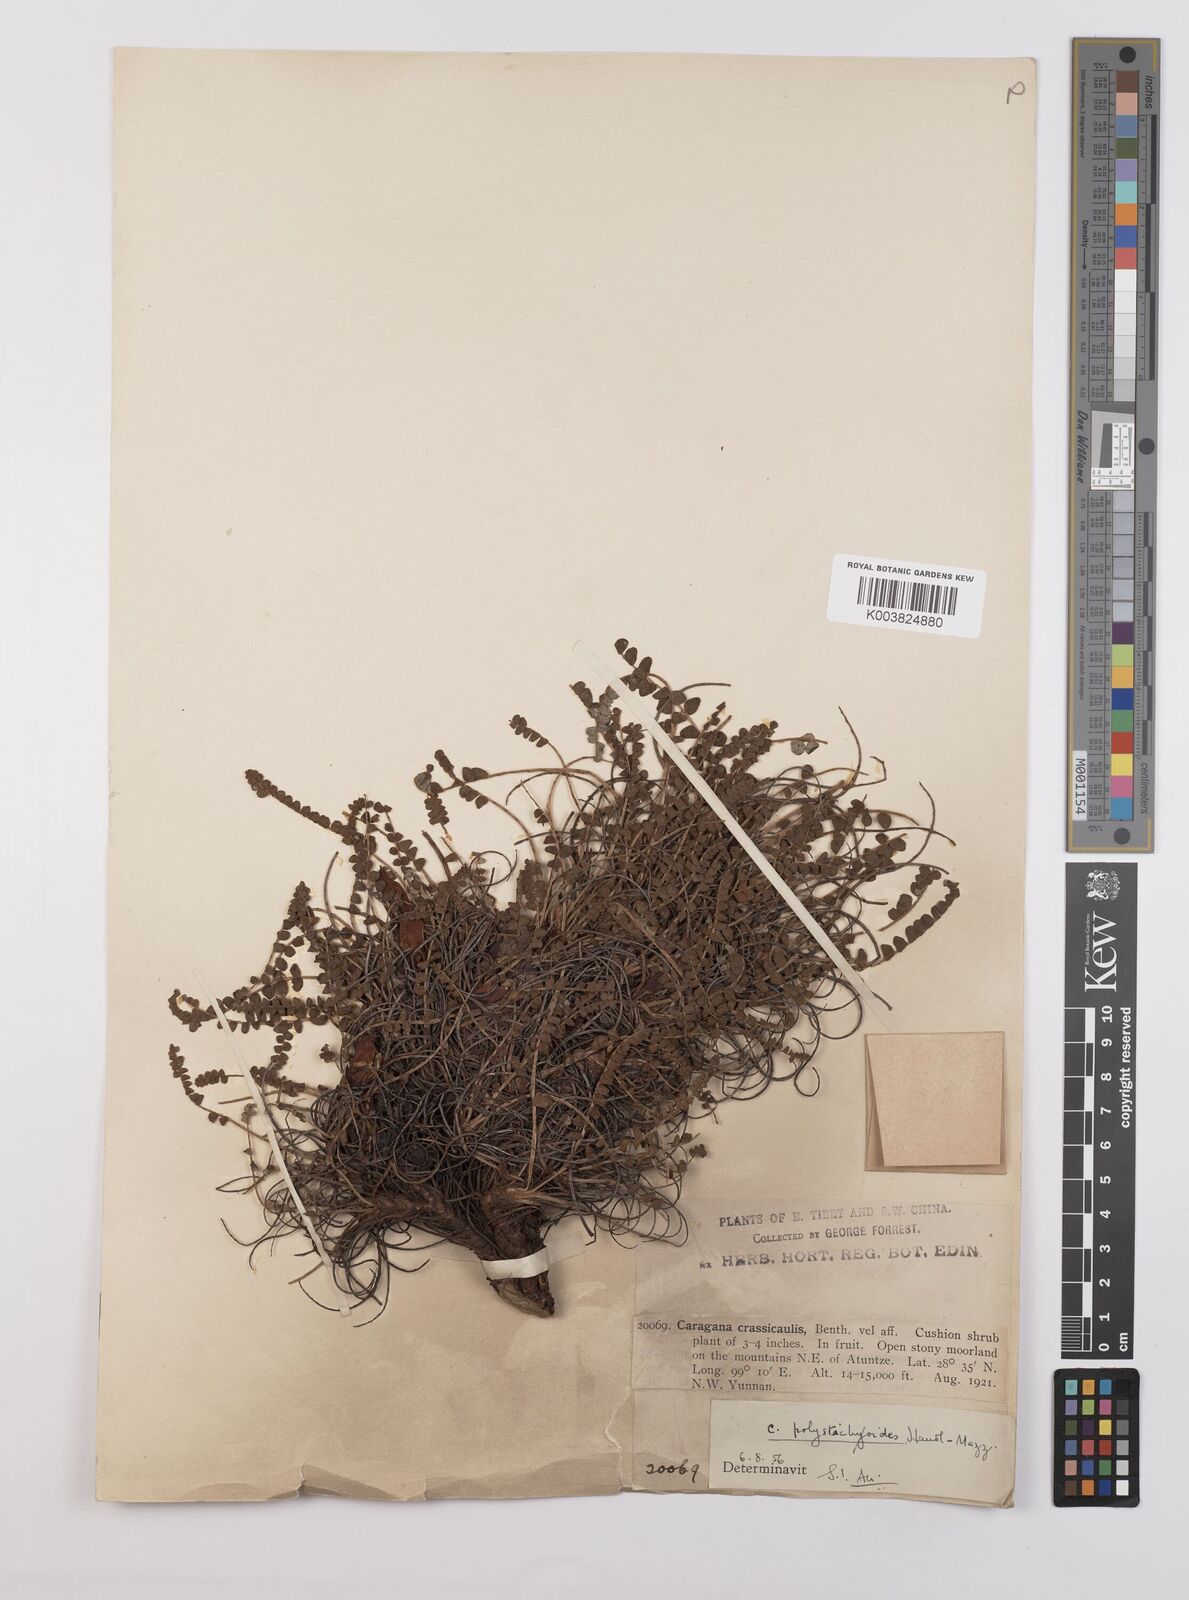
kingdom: Plantae
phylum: Tracheophyta
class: Magnoliopsida
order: Fabales
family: Fabaceae
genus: Chesneya
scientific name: Chesneya polystichoides
